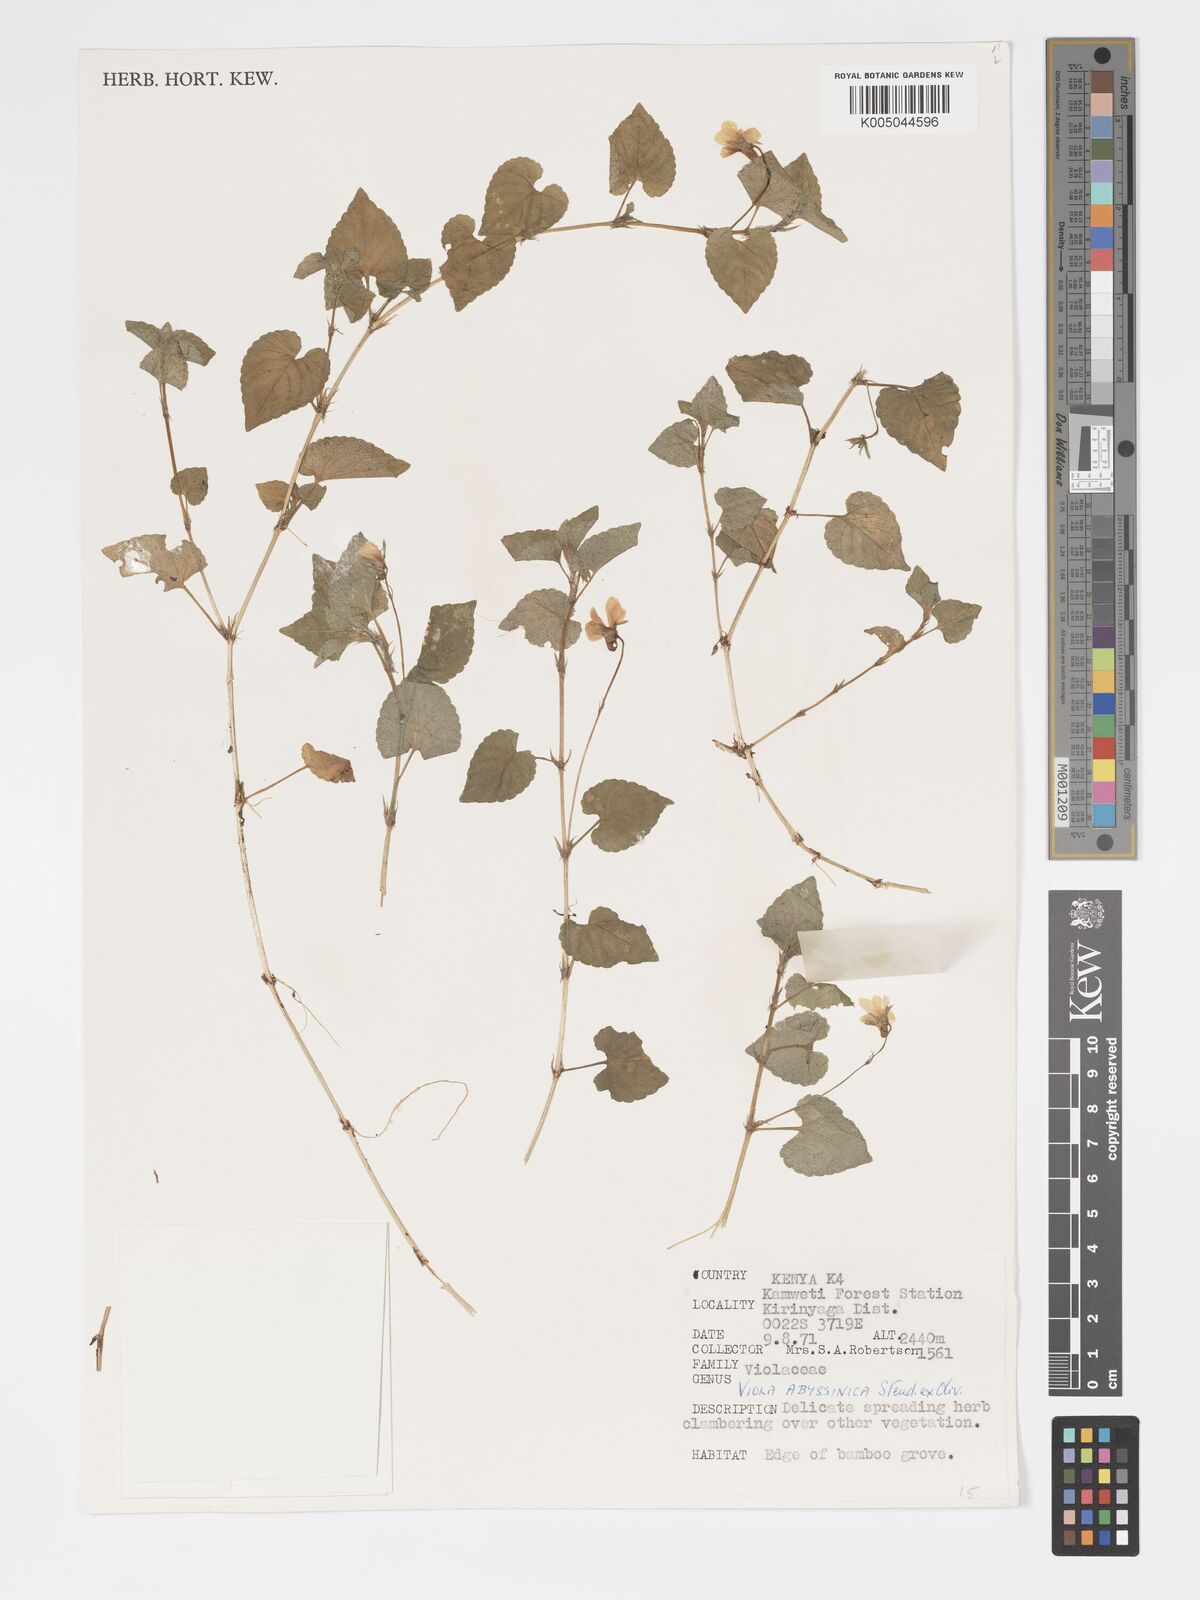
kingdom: Plantae
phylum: Tracheophyta
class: Magnoliopsida
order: Malpighiales
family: Violaceae
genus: Viola
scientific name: Viola abyssinica
